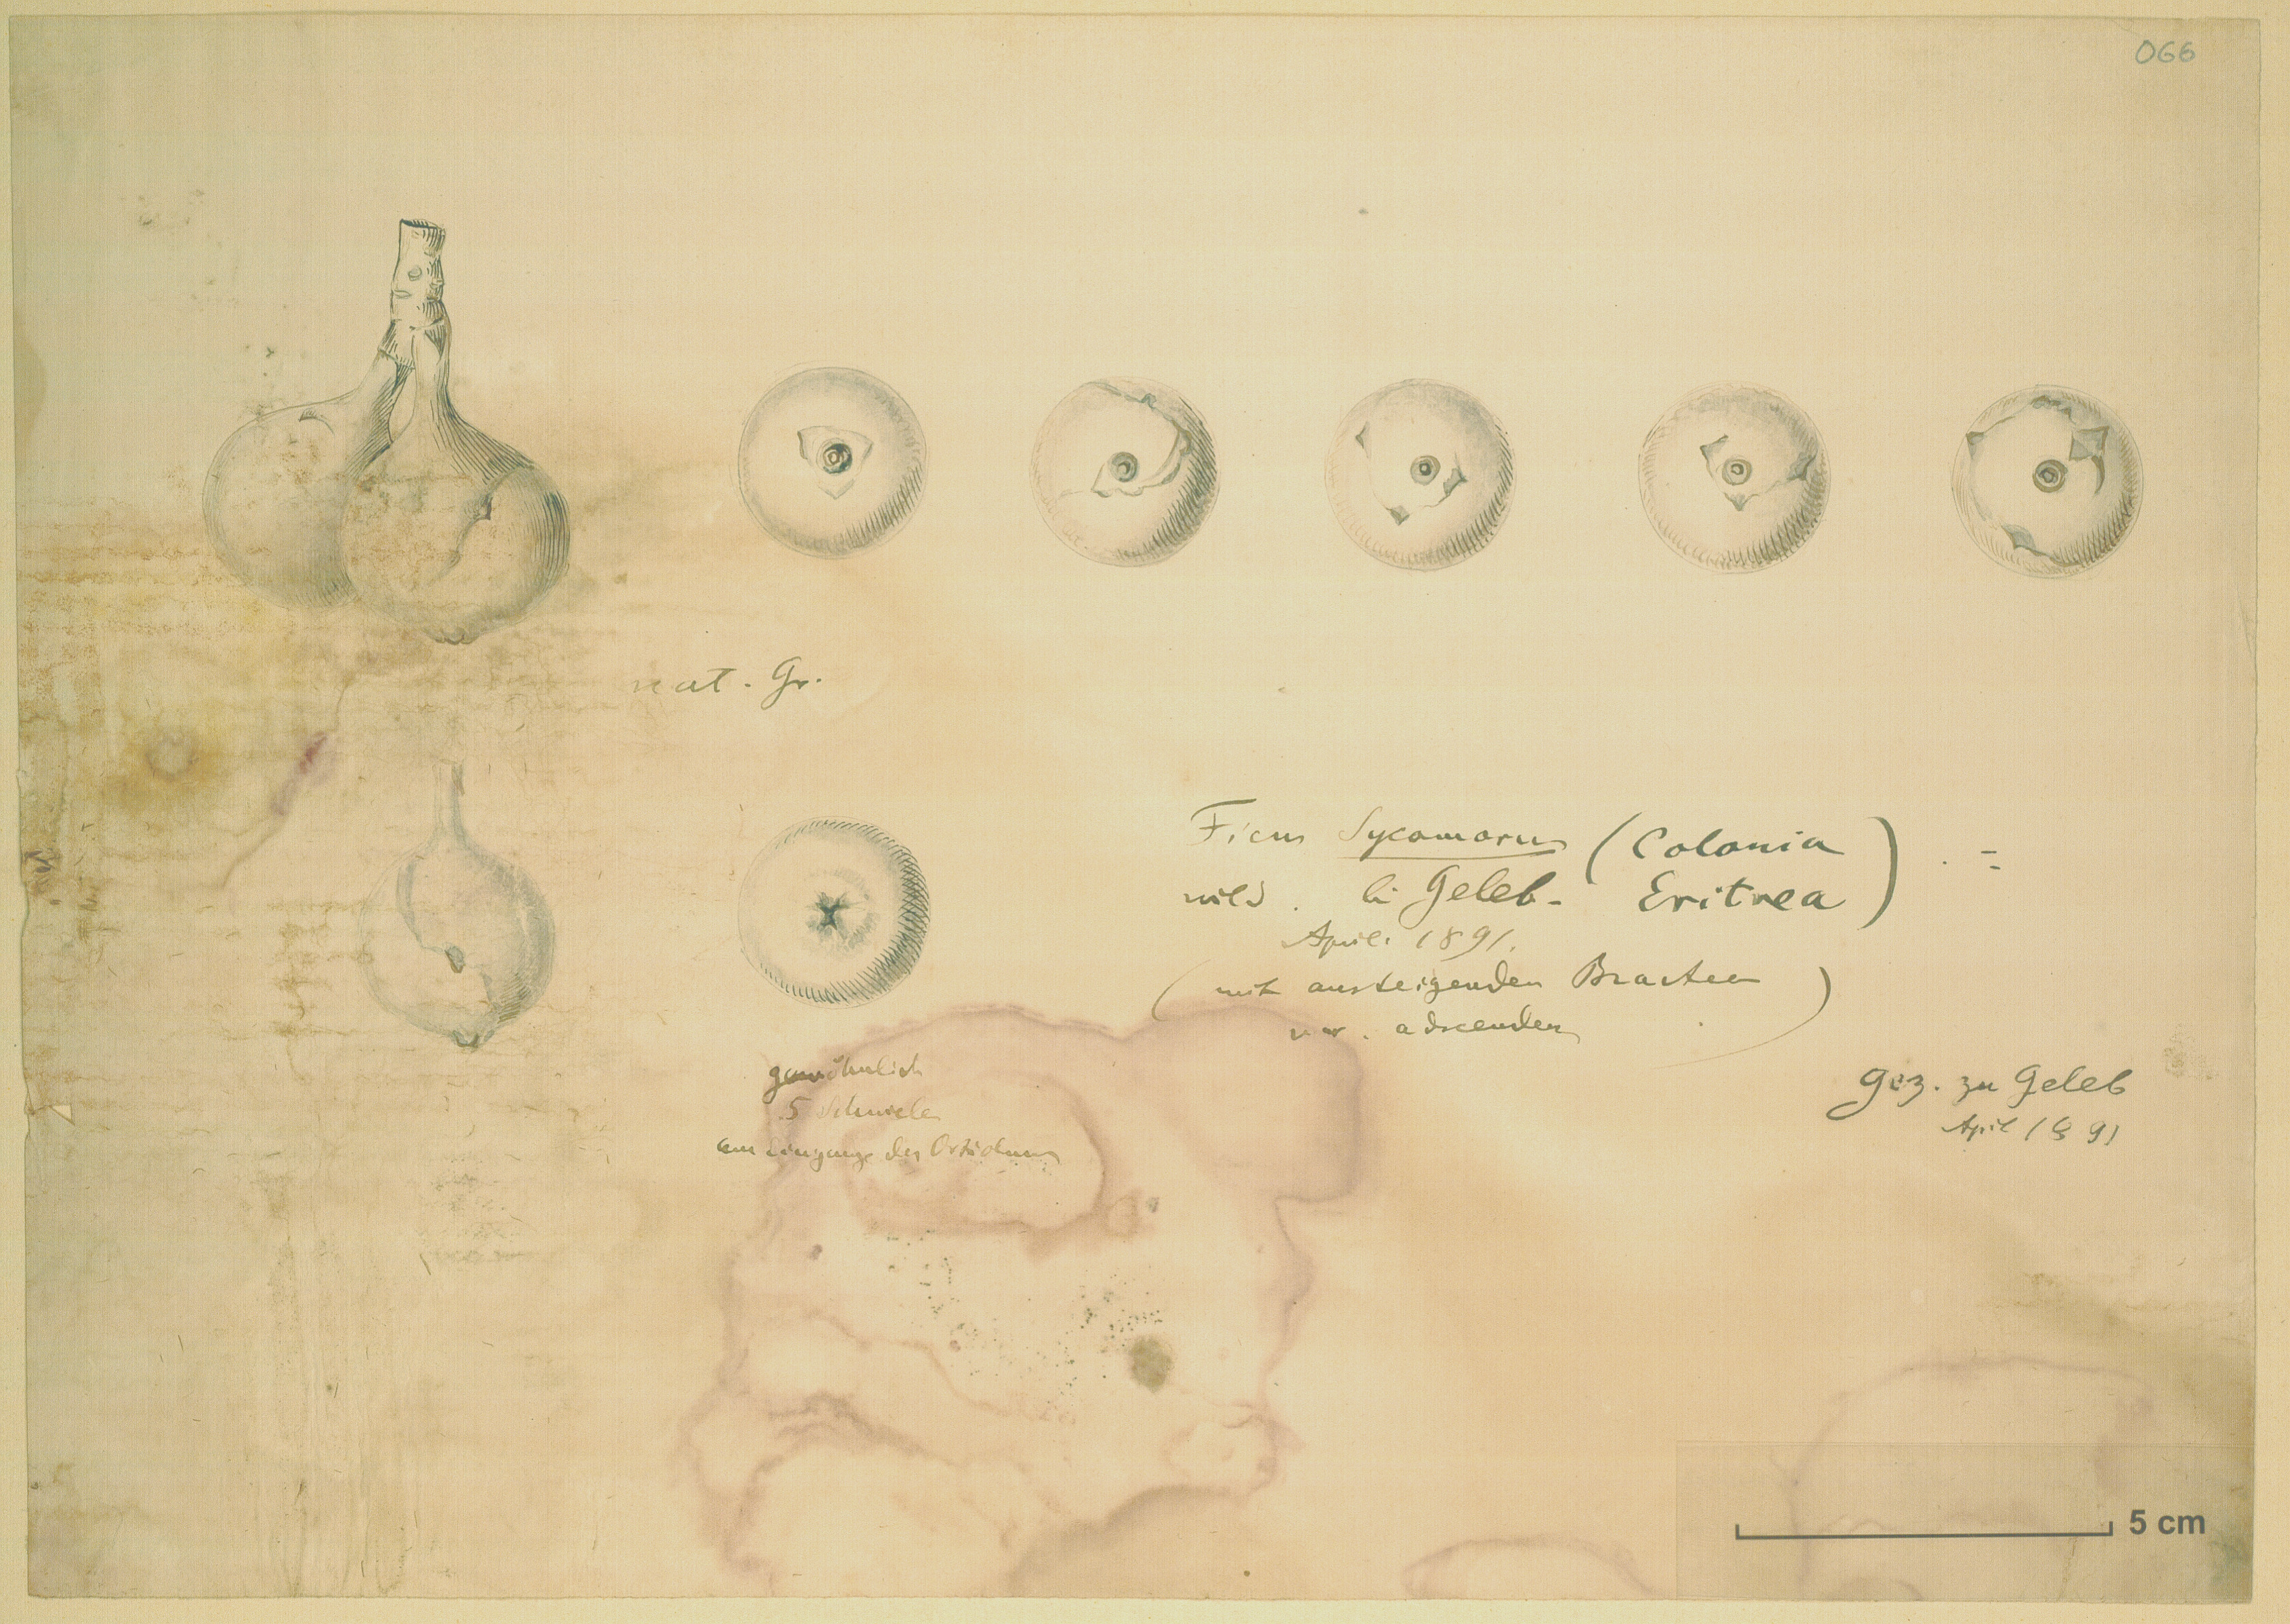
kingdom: Plantae
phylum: Tracheophyta
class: Magnoliopsida
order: Rosales
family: Moraceae
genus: Ficus
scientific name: Ficus sycomorus
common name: Sycomore
